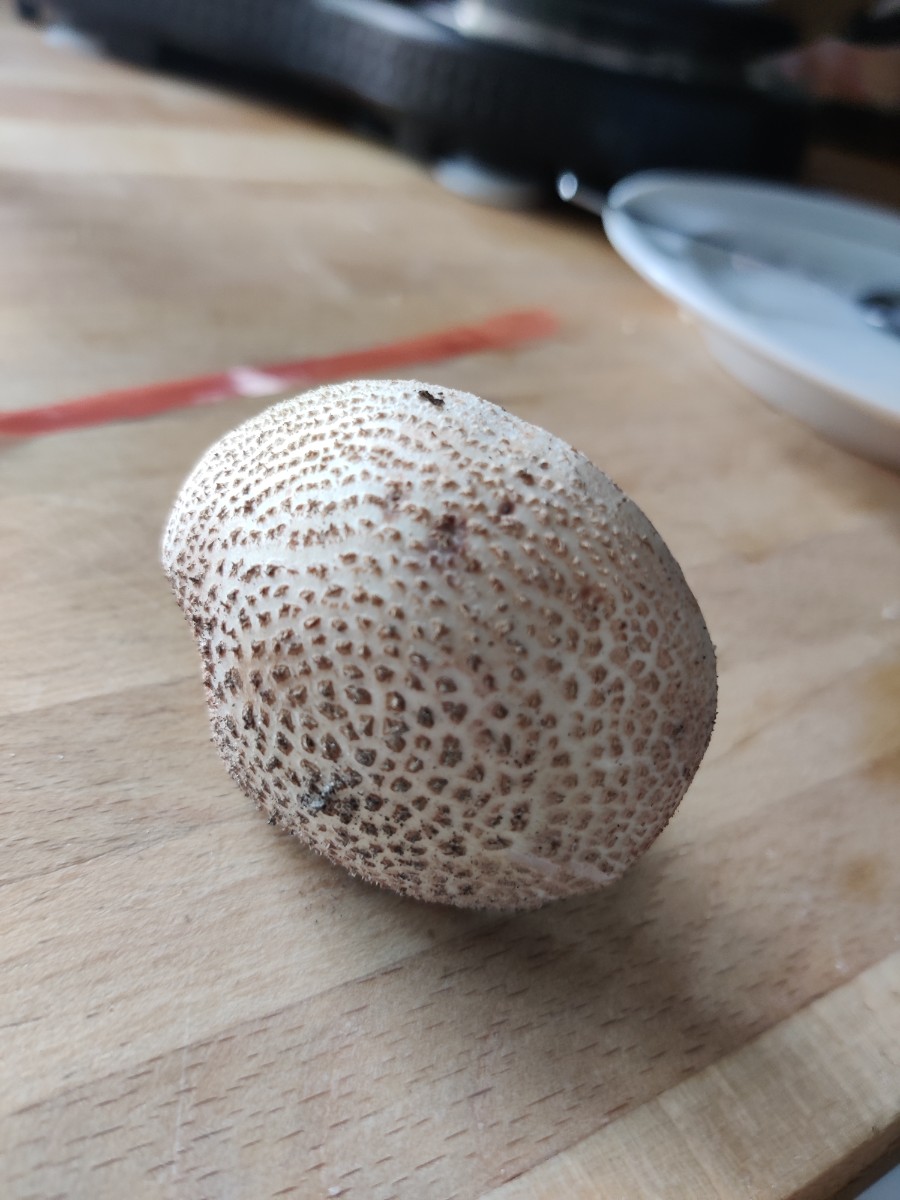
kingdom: Fungi
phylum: Basidiomycota
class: Agaricomycetes
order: Agaricales
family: Amanitaceae
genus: Amanita
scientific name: Amanita rubescens
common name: rødmende fluesvamp
